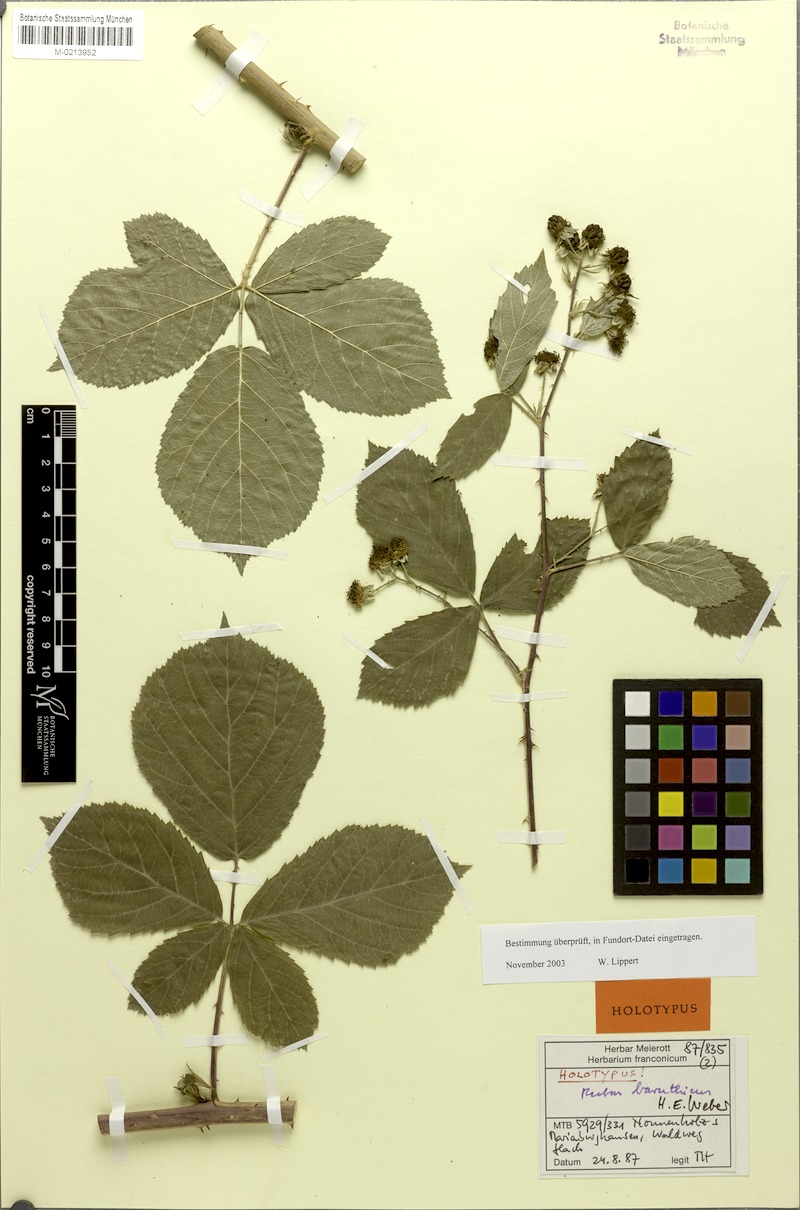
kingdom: Plantae
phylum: Tracheophyta
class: Magnoliopsida
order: Rosales
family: Rosaceae
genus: Rubus
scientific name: Rubus macrostemonides
